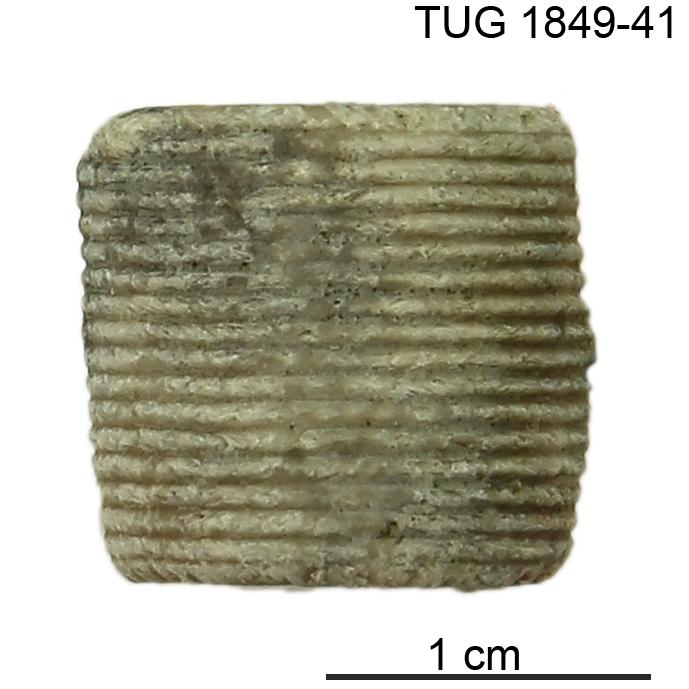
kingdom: Animalia
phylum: Echinodermata
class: Crinoidea
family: Crotalocrinitidae
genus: Crotalocrinites
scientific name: Crotalocrinites
